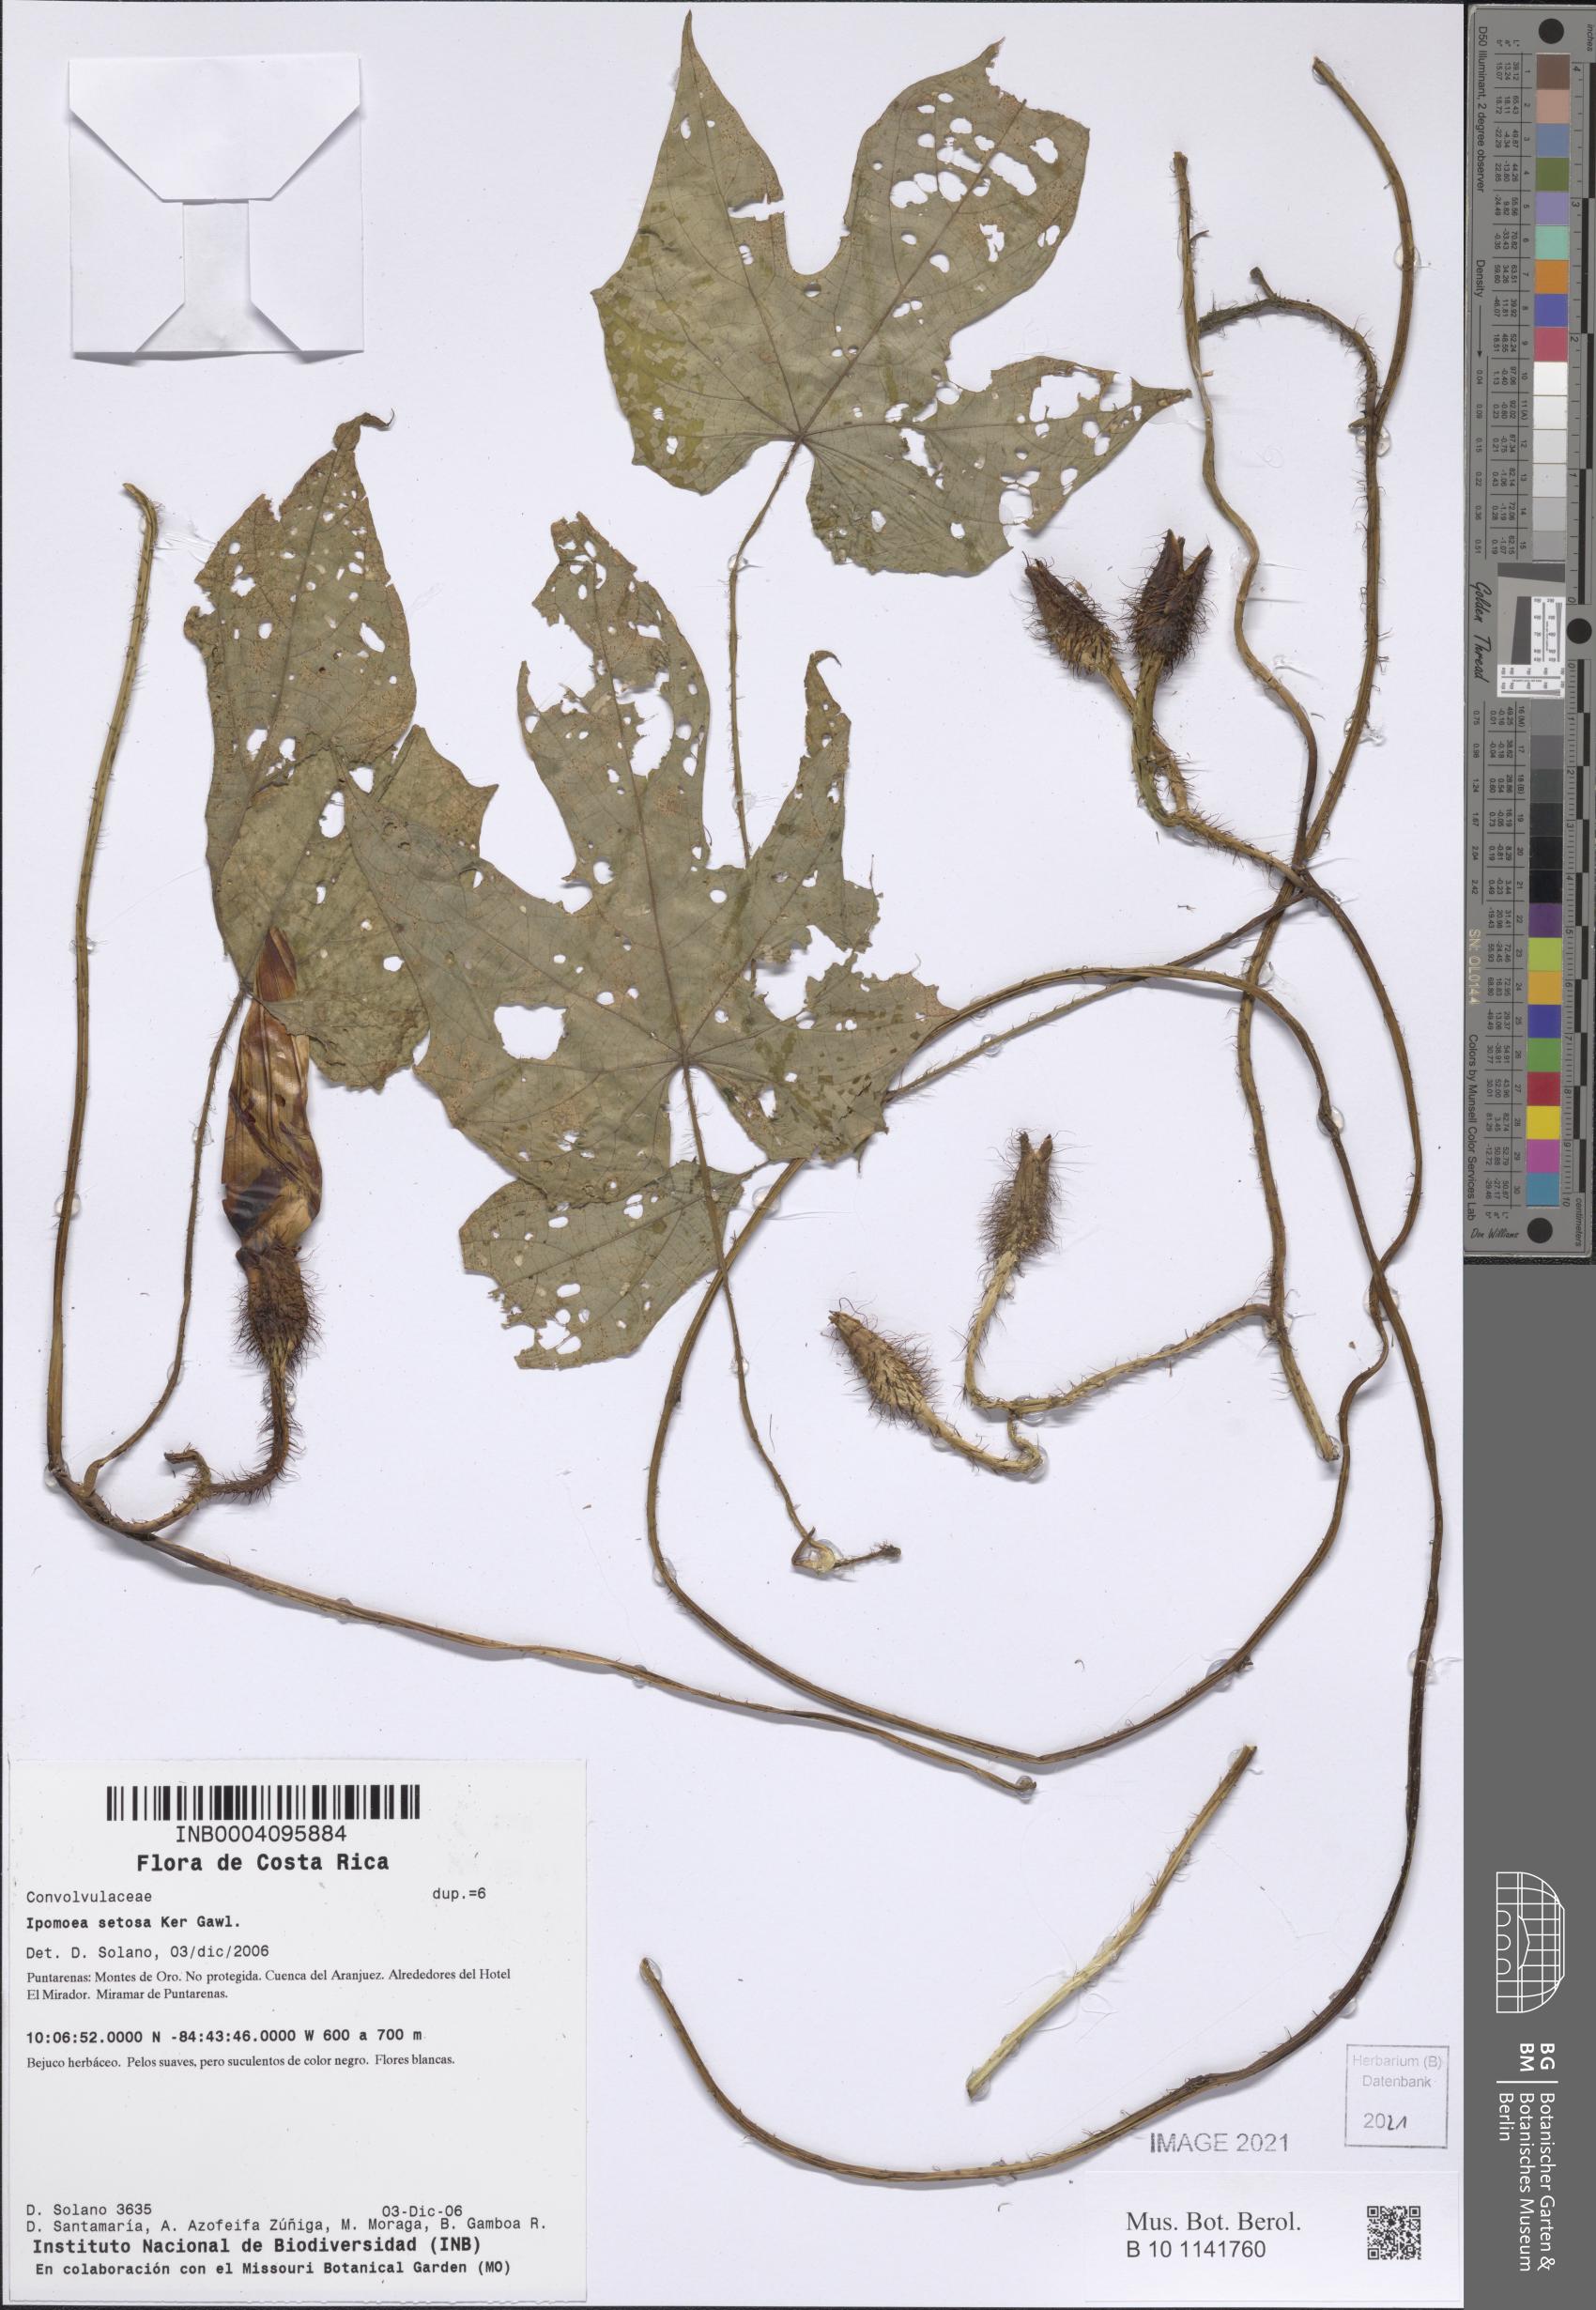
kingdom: Plantae
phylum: Tracheophyta
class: Magnoliopsida
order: Solanales
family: Convolvulaceae
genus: Ipomoea
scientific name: Ipomoea setosa
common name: Brazilian morning-glory
